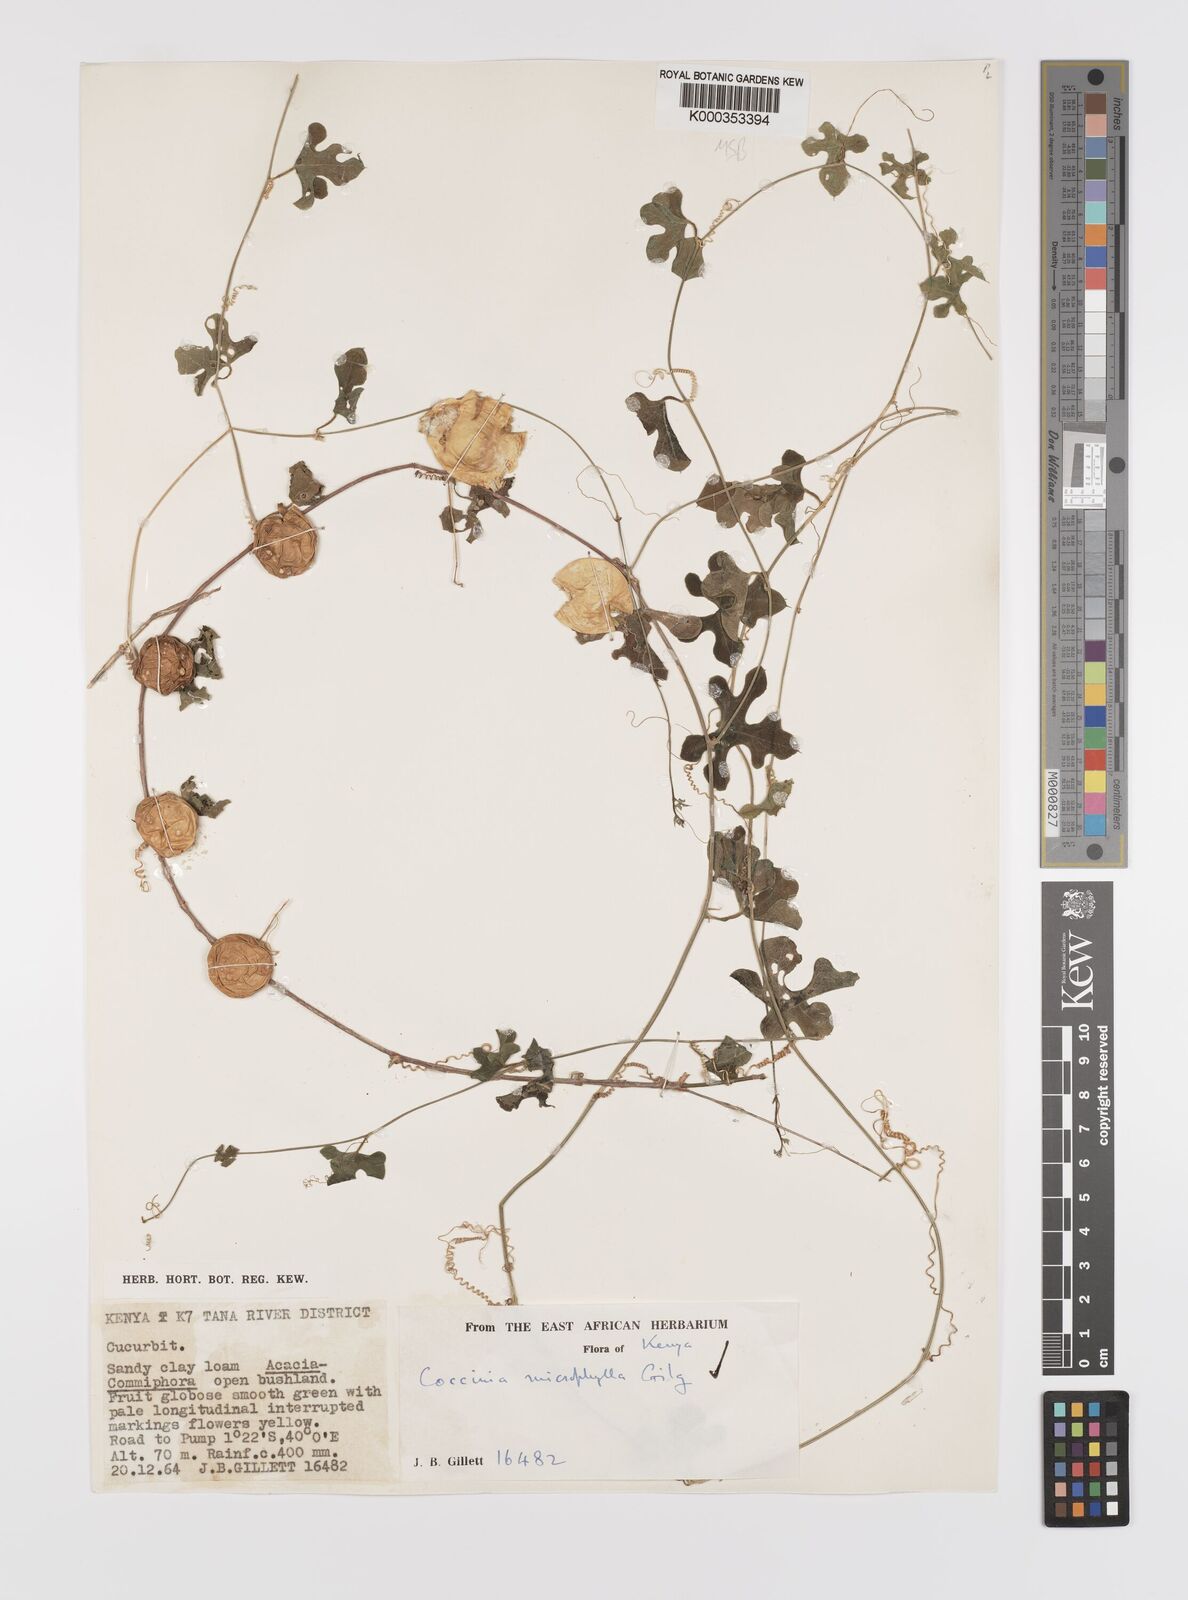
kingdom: Plantae
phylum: Tracheophyta
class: Magnoliopsida
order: Cucurbitales
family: Cucurbitaceae
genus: Coccinia
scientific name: Coccinia microphylla
